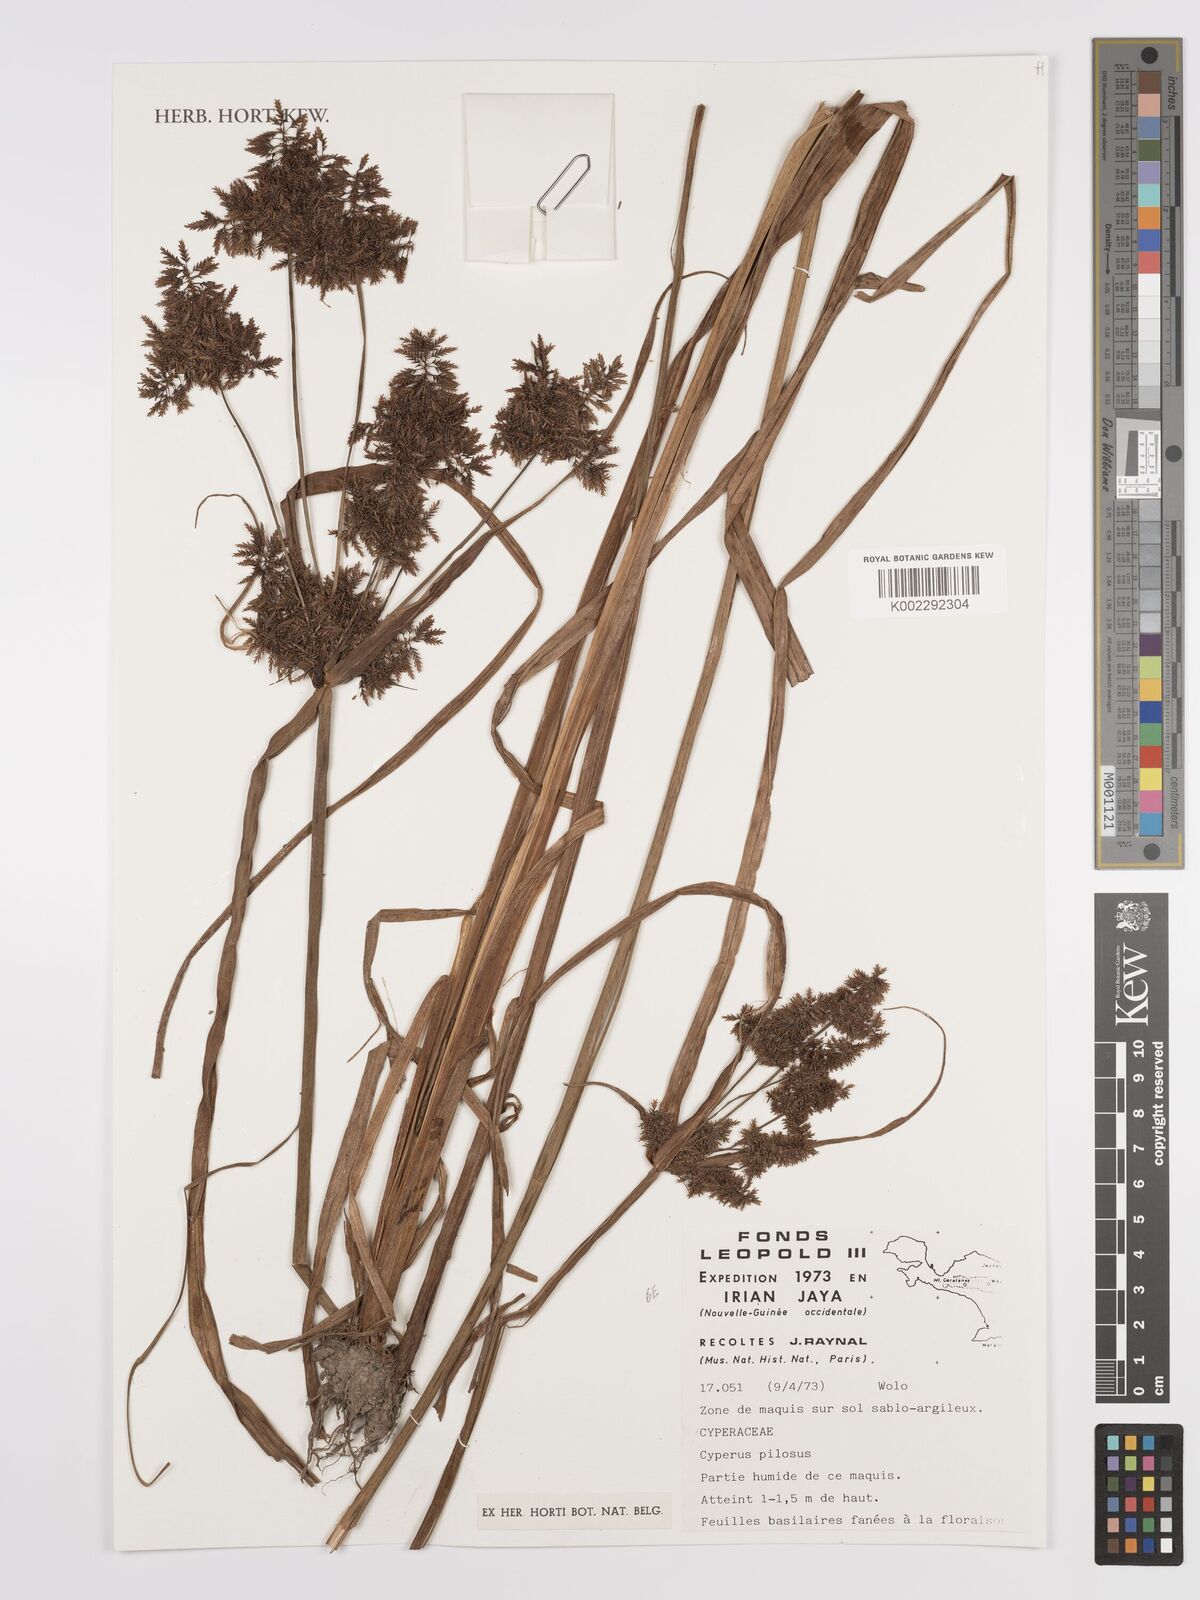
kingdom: Plantae
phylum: Tracheophyta
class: Liliopsida
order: Poales
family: Cyperaceae
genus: Cyperus
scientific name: Cyperus pilosus
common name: Fuzzy flatsedge
